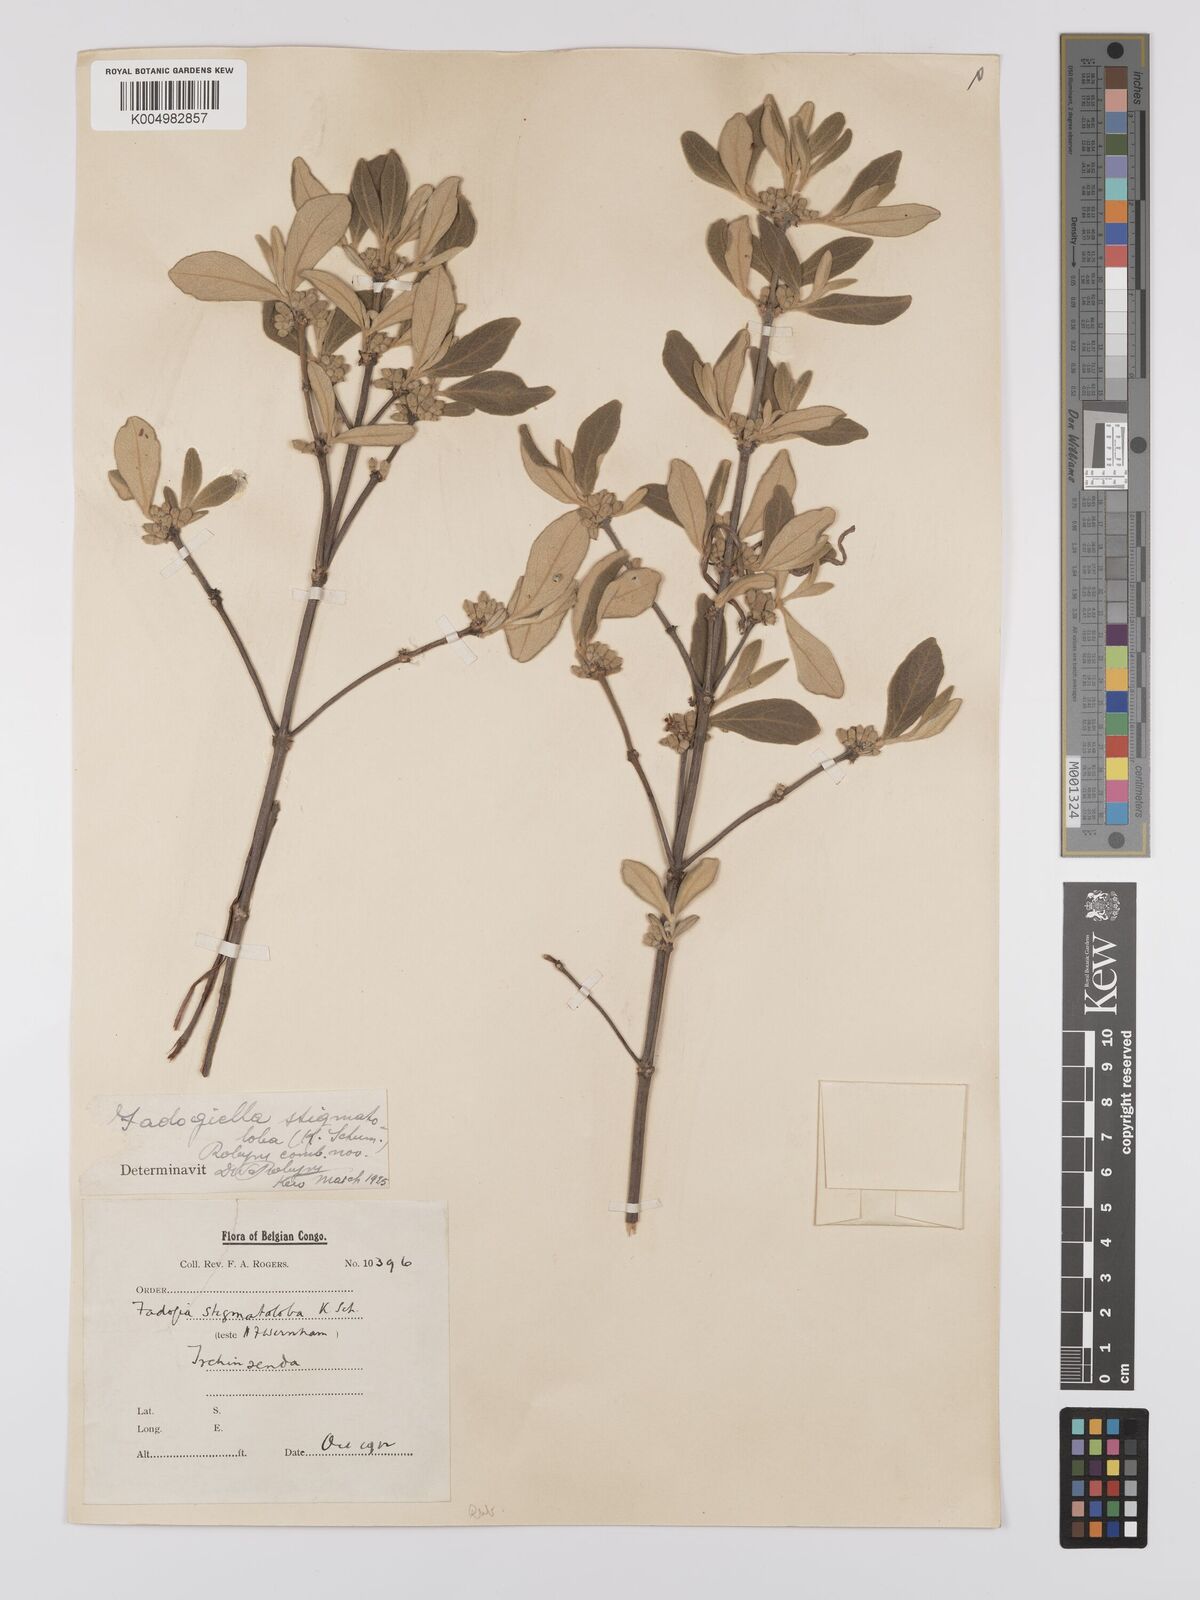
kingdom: Plantae
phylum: Tracheophyta
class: Magnoliopsida
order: Gentianales
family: Rubiaceae
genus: Fadogiella
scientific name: Fadogiella stigmatoloba
